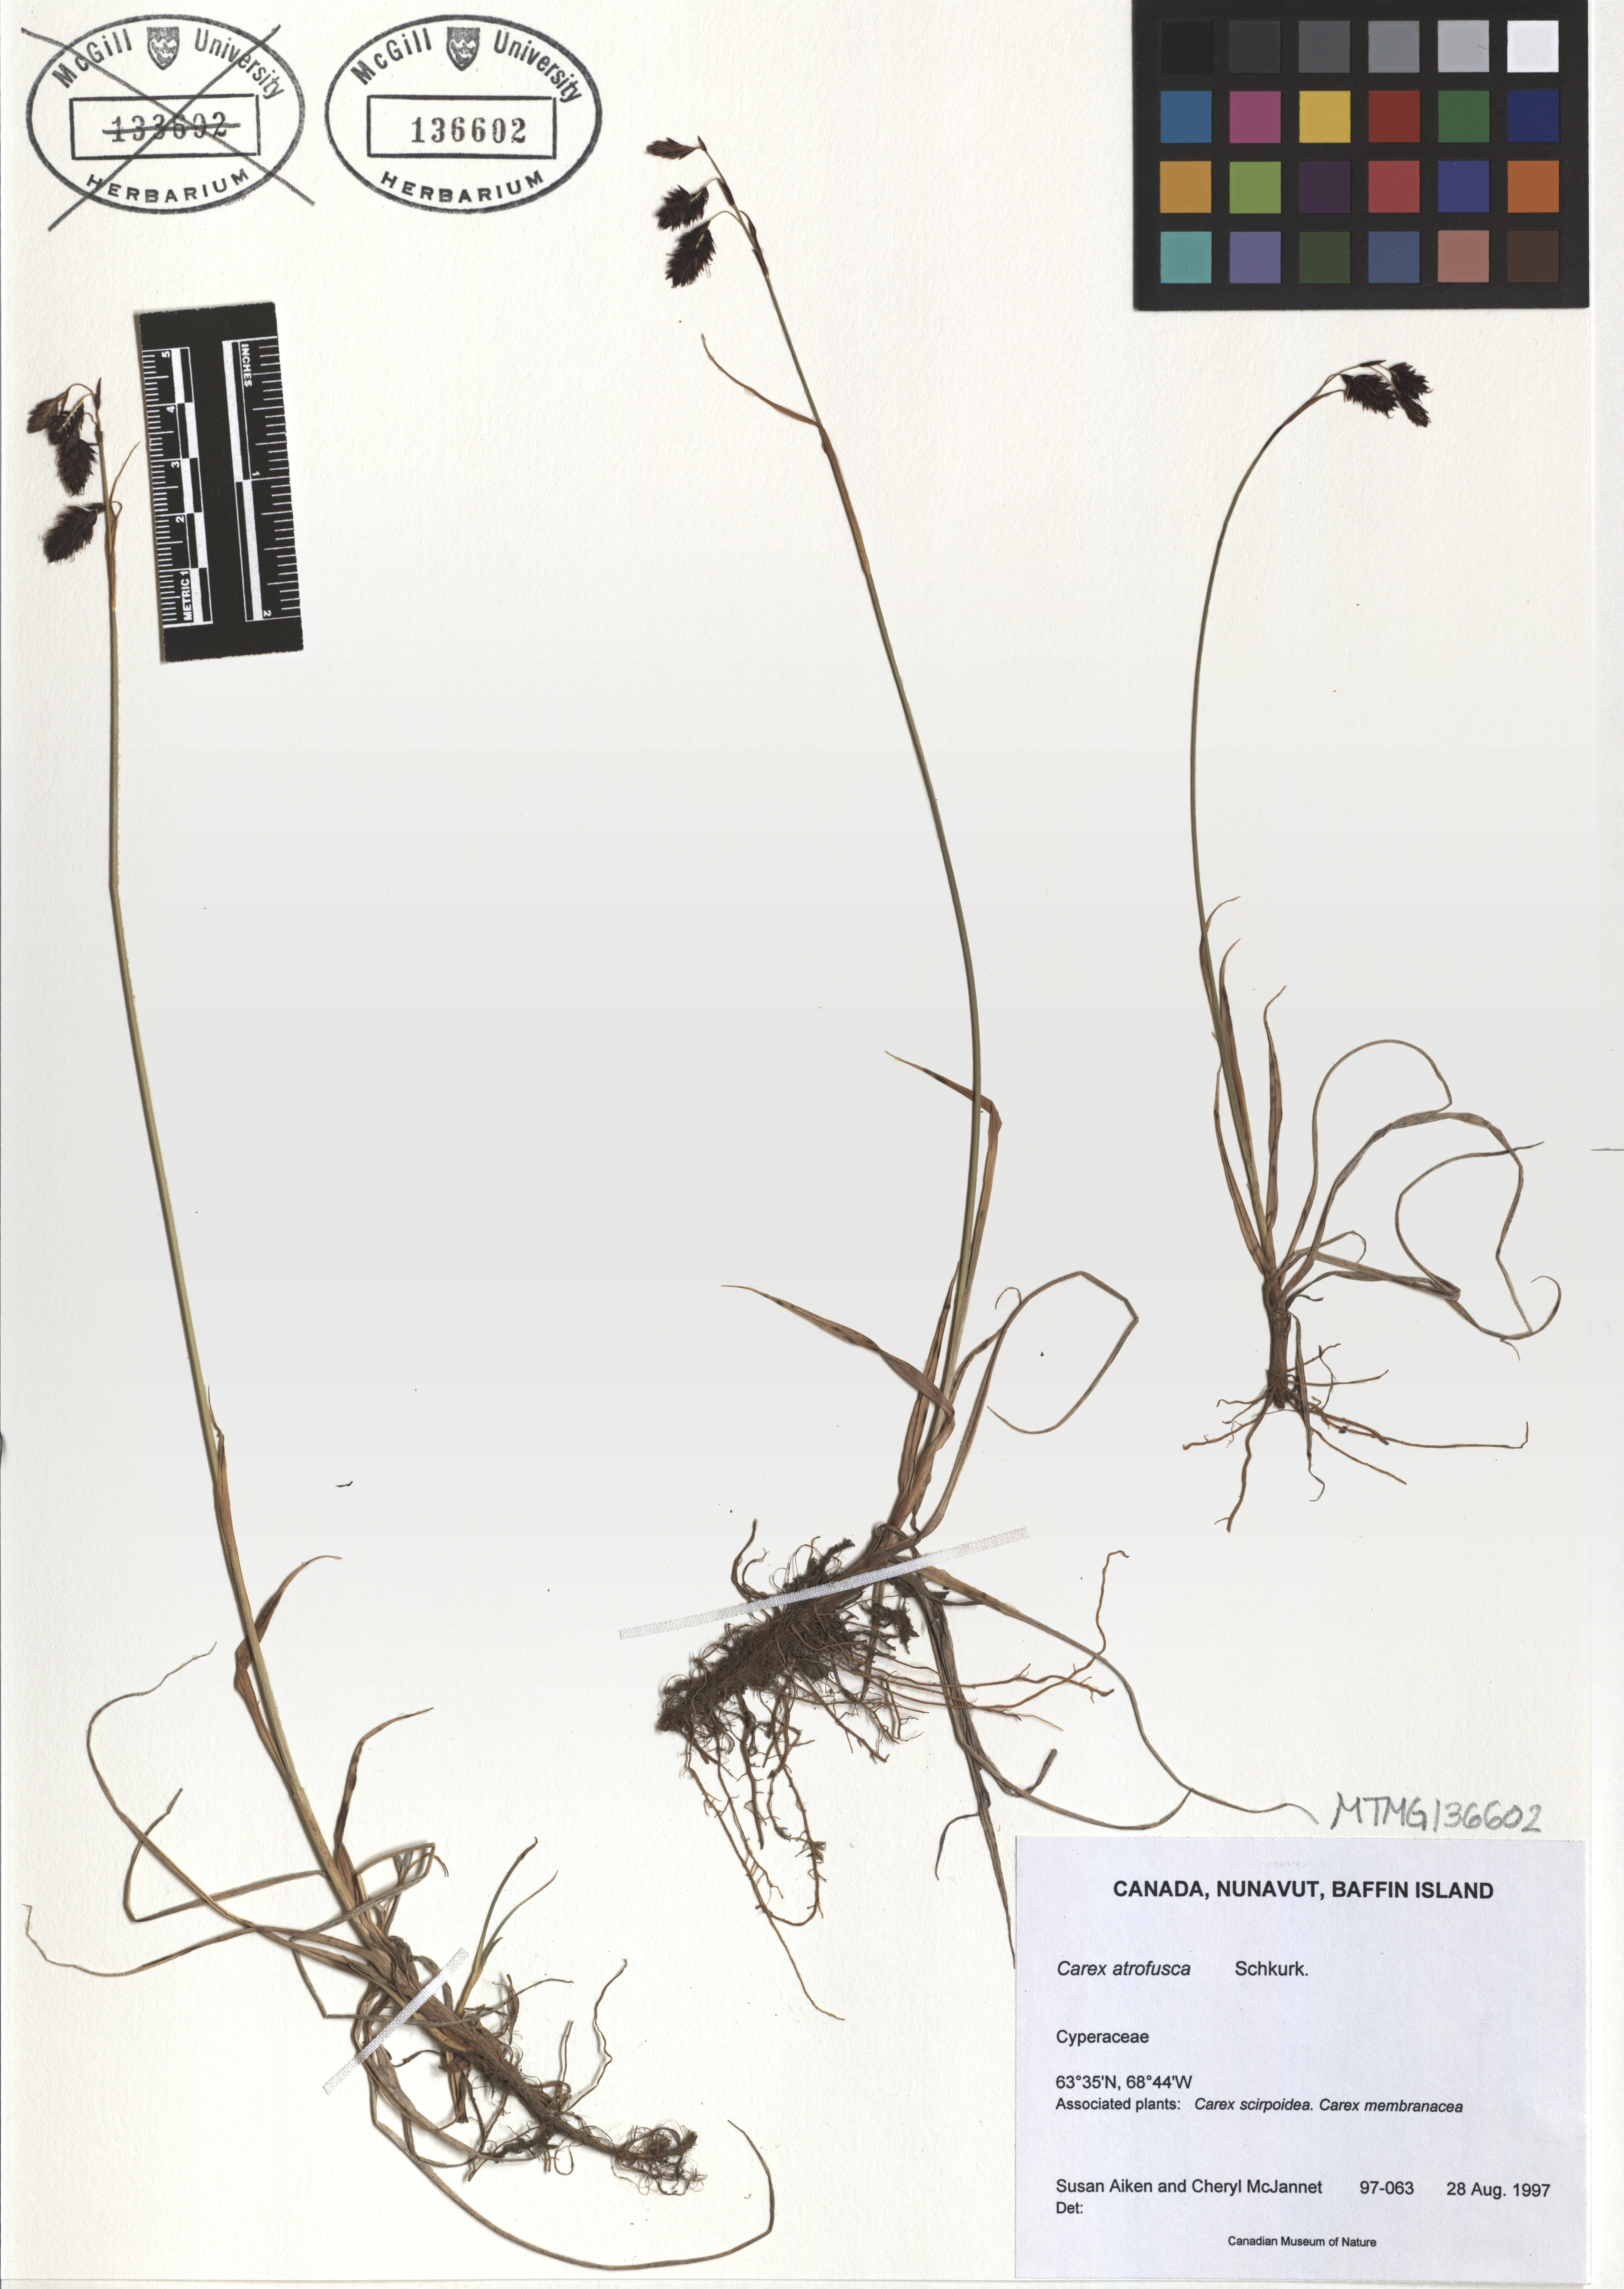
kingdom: Plantae
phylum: Tracheophyta
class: Liliopsida
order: Poales
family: Cyperaceae
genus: Carex
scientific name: Carex atrofusca
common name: Scorched alpine-sedge
